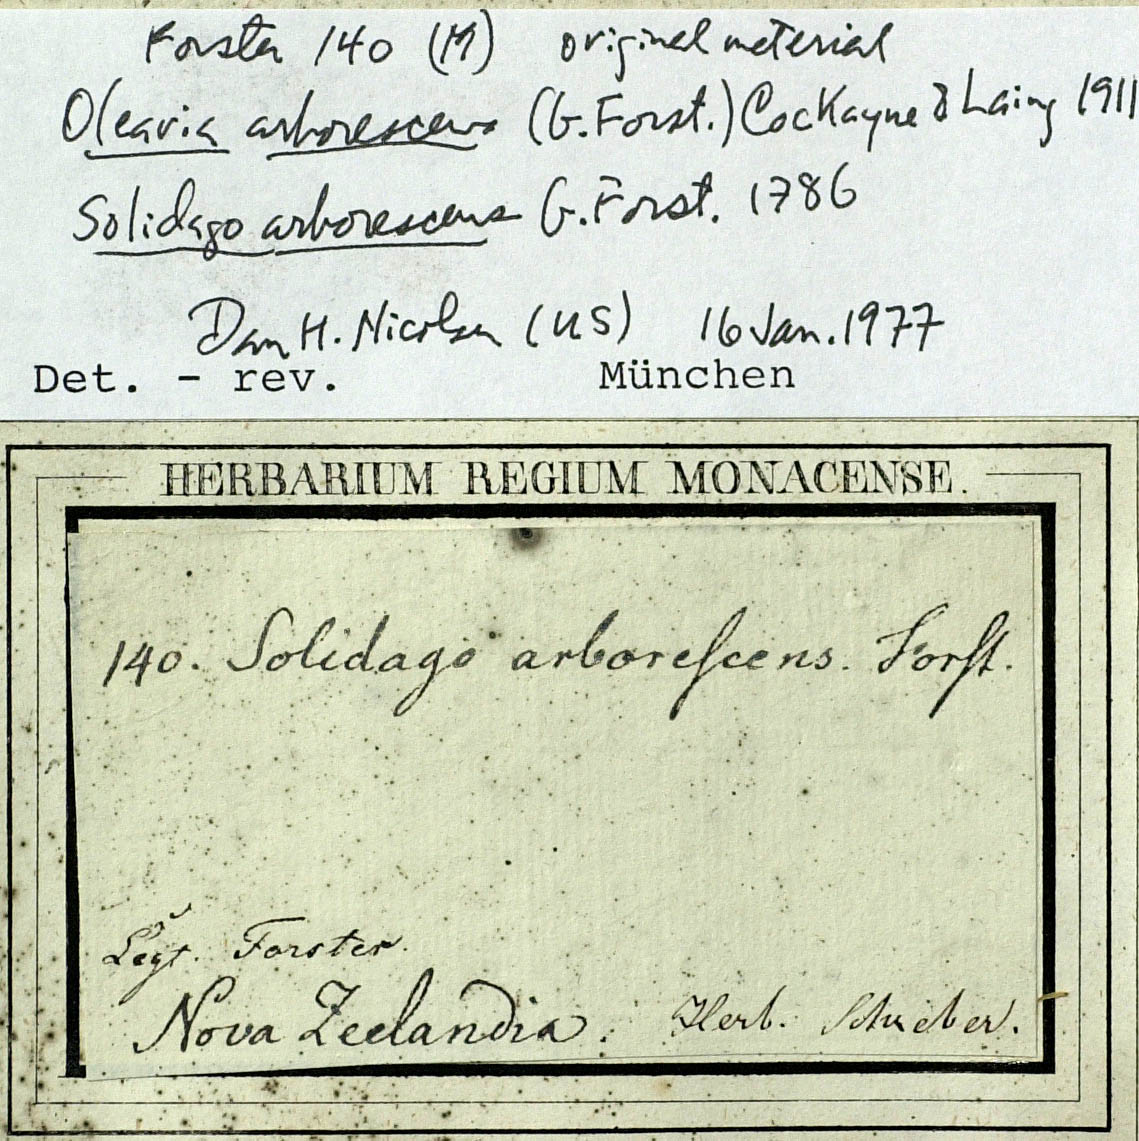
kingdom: Plantae
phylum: Tracheophyta
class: Magnoliopsida
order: Asterales
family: Asteraceae
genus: Olearia
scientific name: Olearia arborescens
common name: Glossy tree daisy
